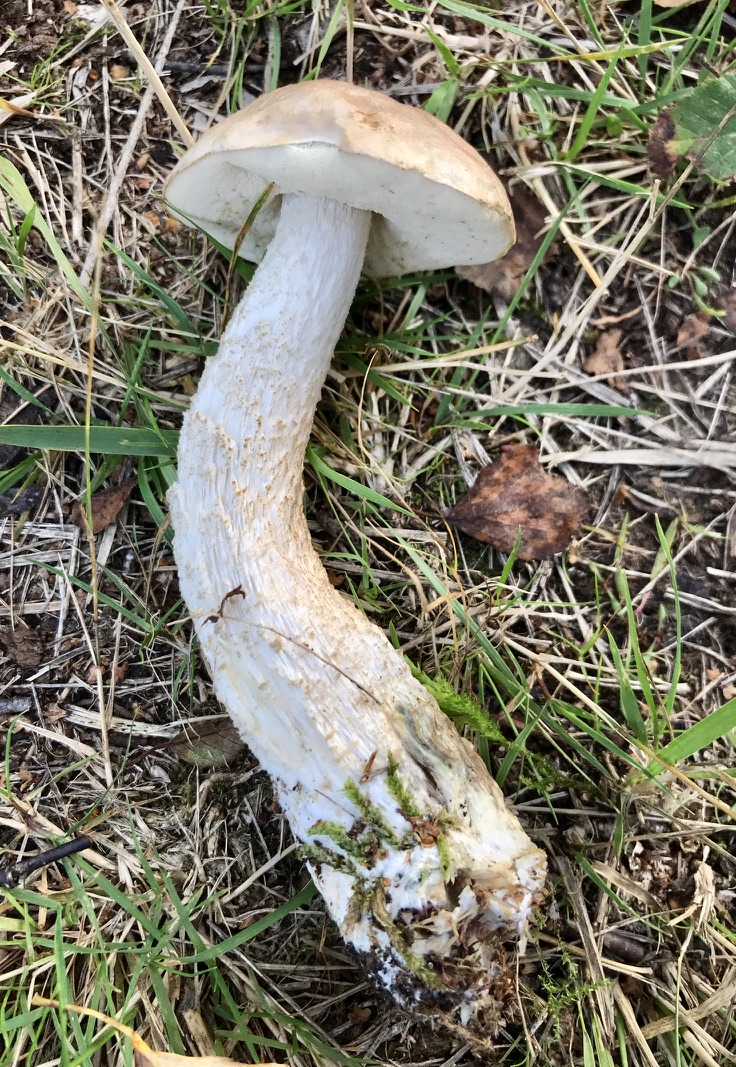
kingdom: Fungi
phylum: Basidiomycota
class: Agaricomycetes
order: Boletales
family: Boletaceae
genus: Leccinum
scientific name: Leccinum
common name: skælrørhat
